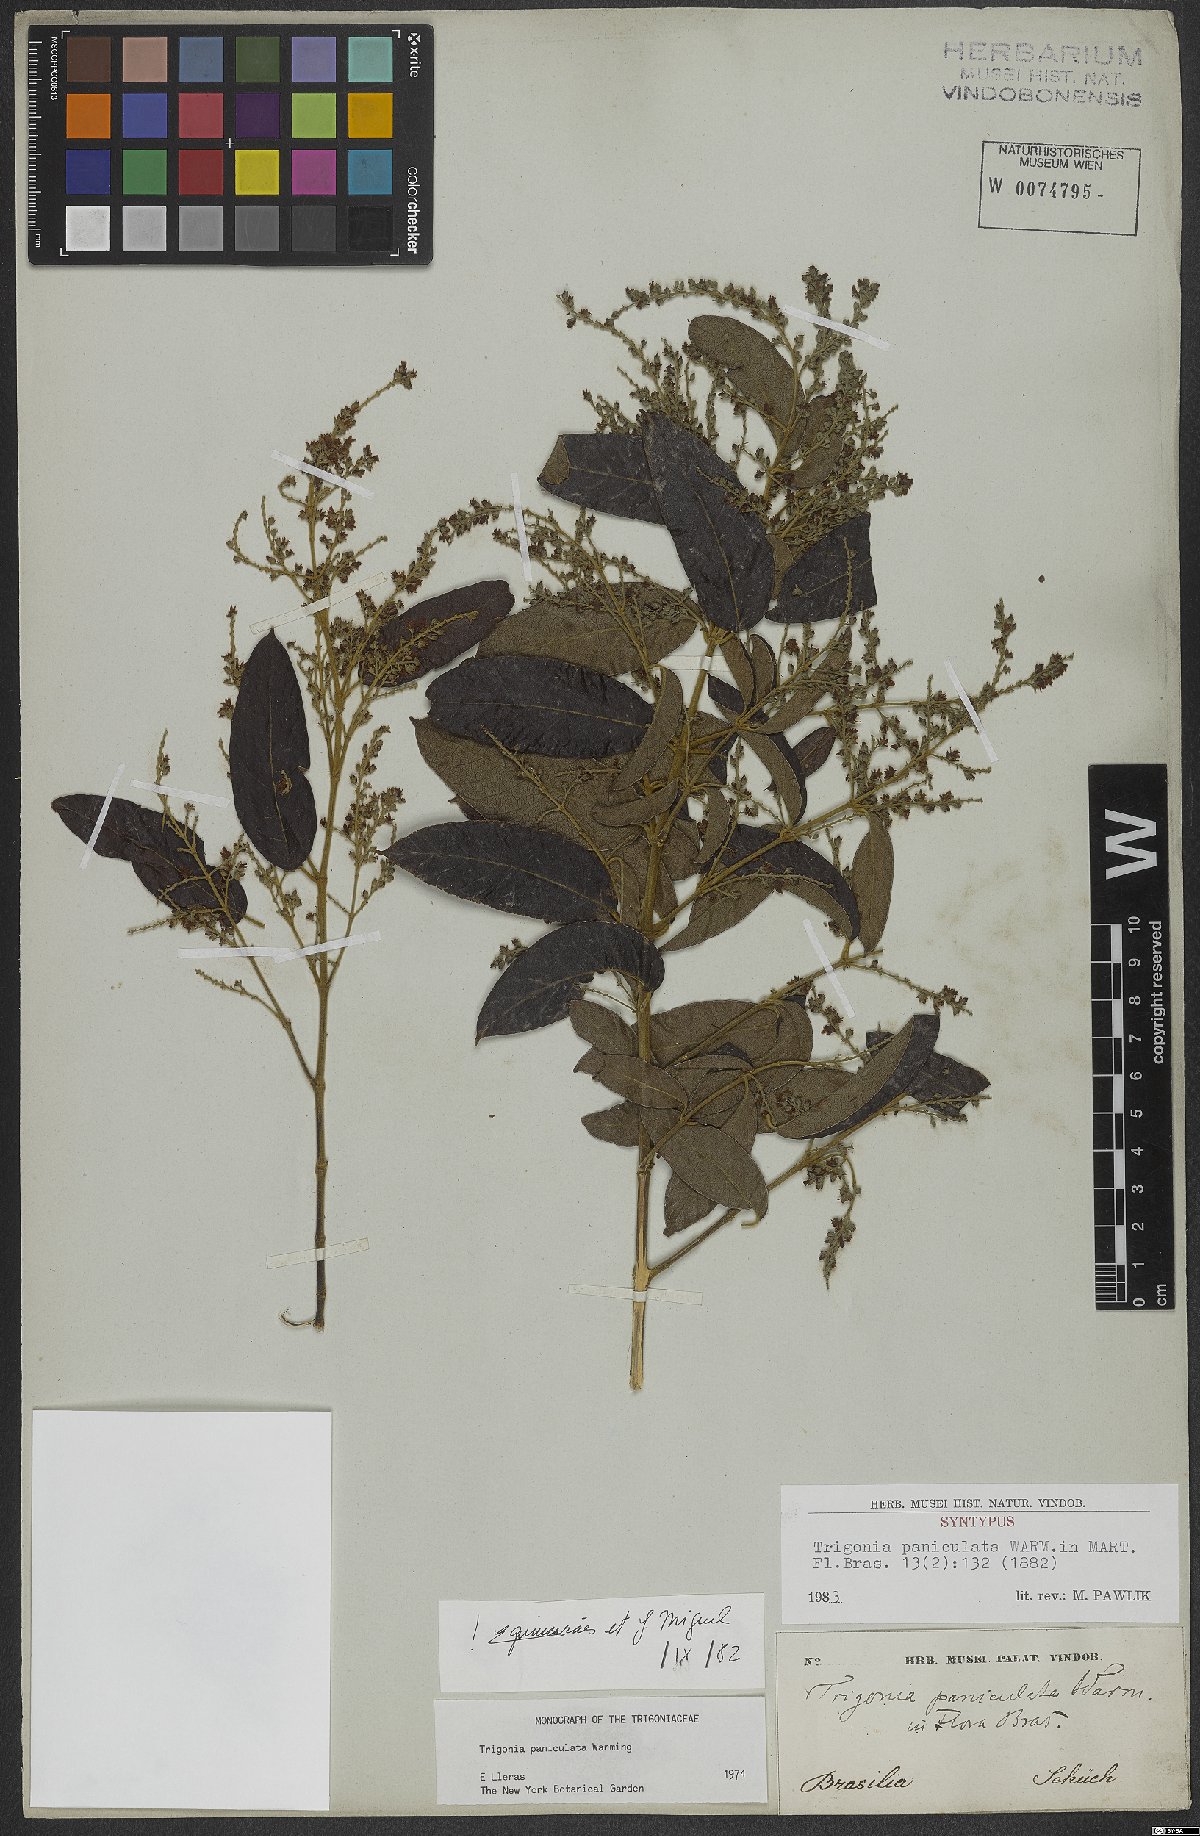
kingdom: Plantae
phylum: Tracheophyta
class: Magnoliopsida
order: Malpighiales
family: Trigoniaceae
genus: Trigonia
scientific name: Trigonia paniculata
